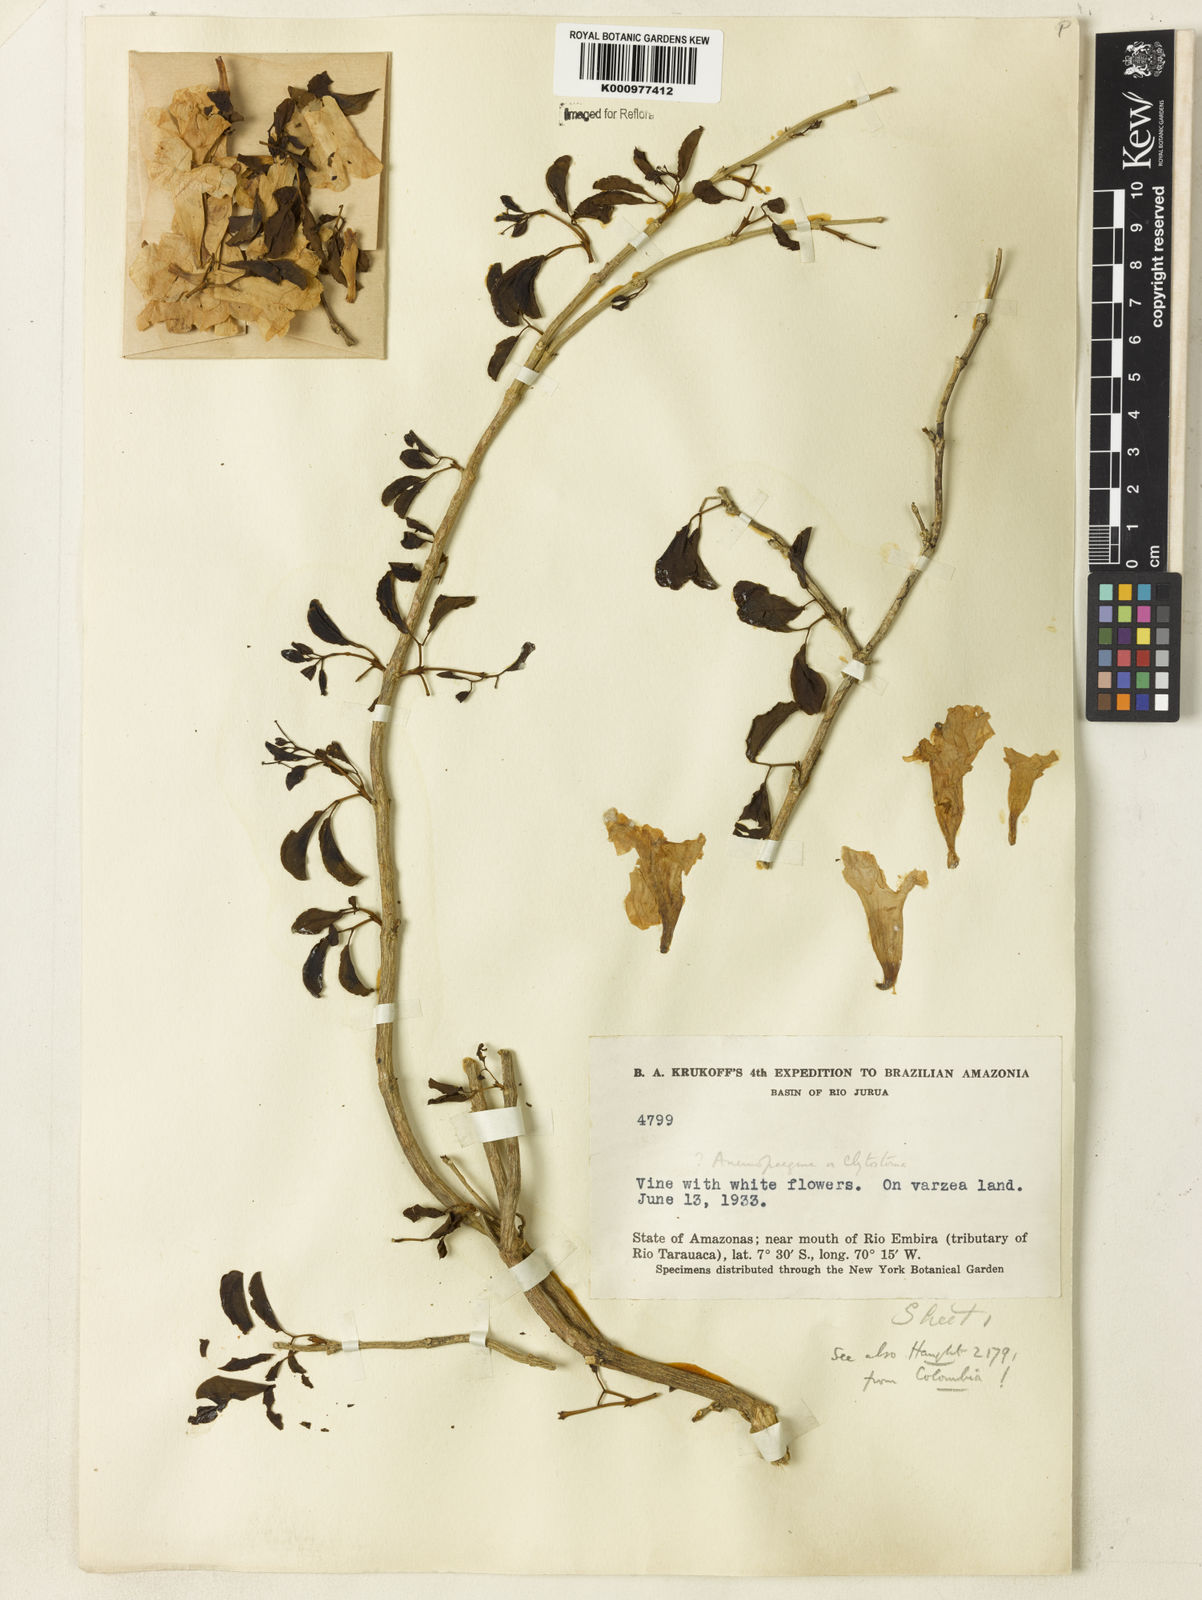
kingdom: Plantae
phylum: Tracheophyta
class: Magnoliopsida
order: Lamiales
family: Bignoniaceae
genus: Anemopaegma
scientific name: Anemopaegma
